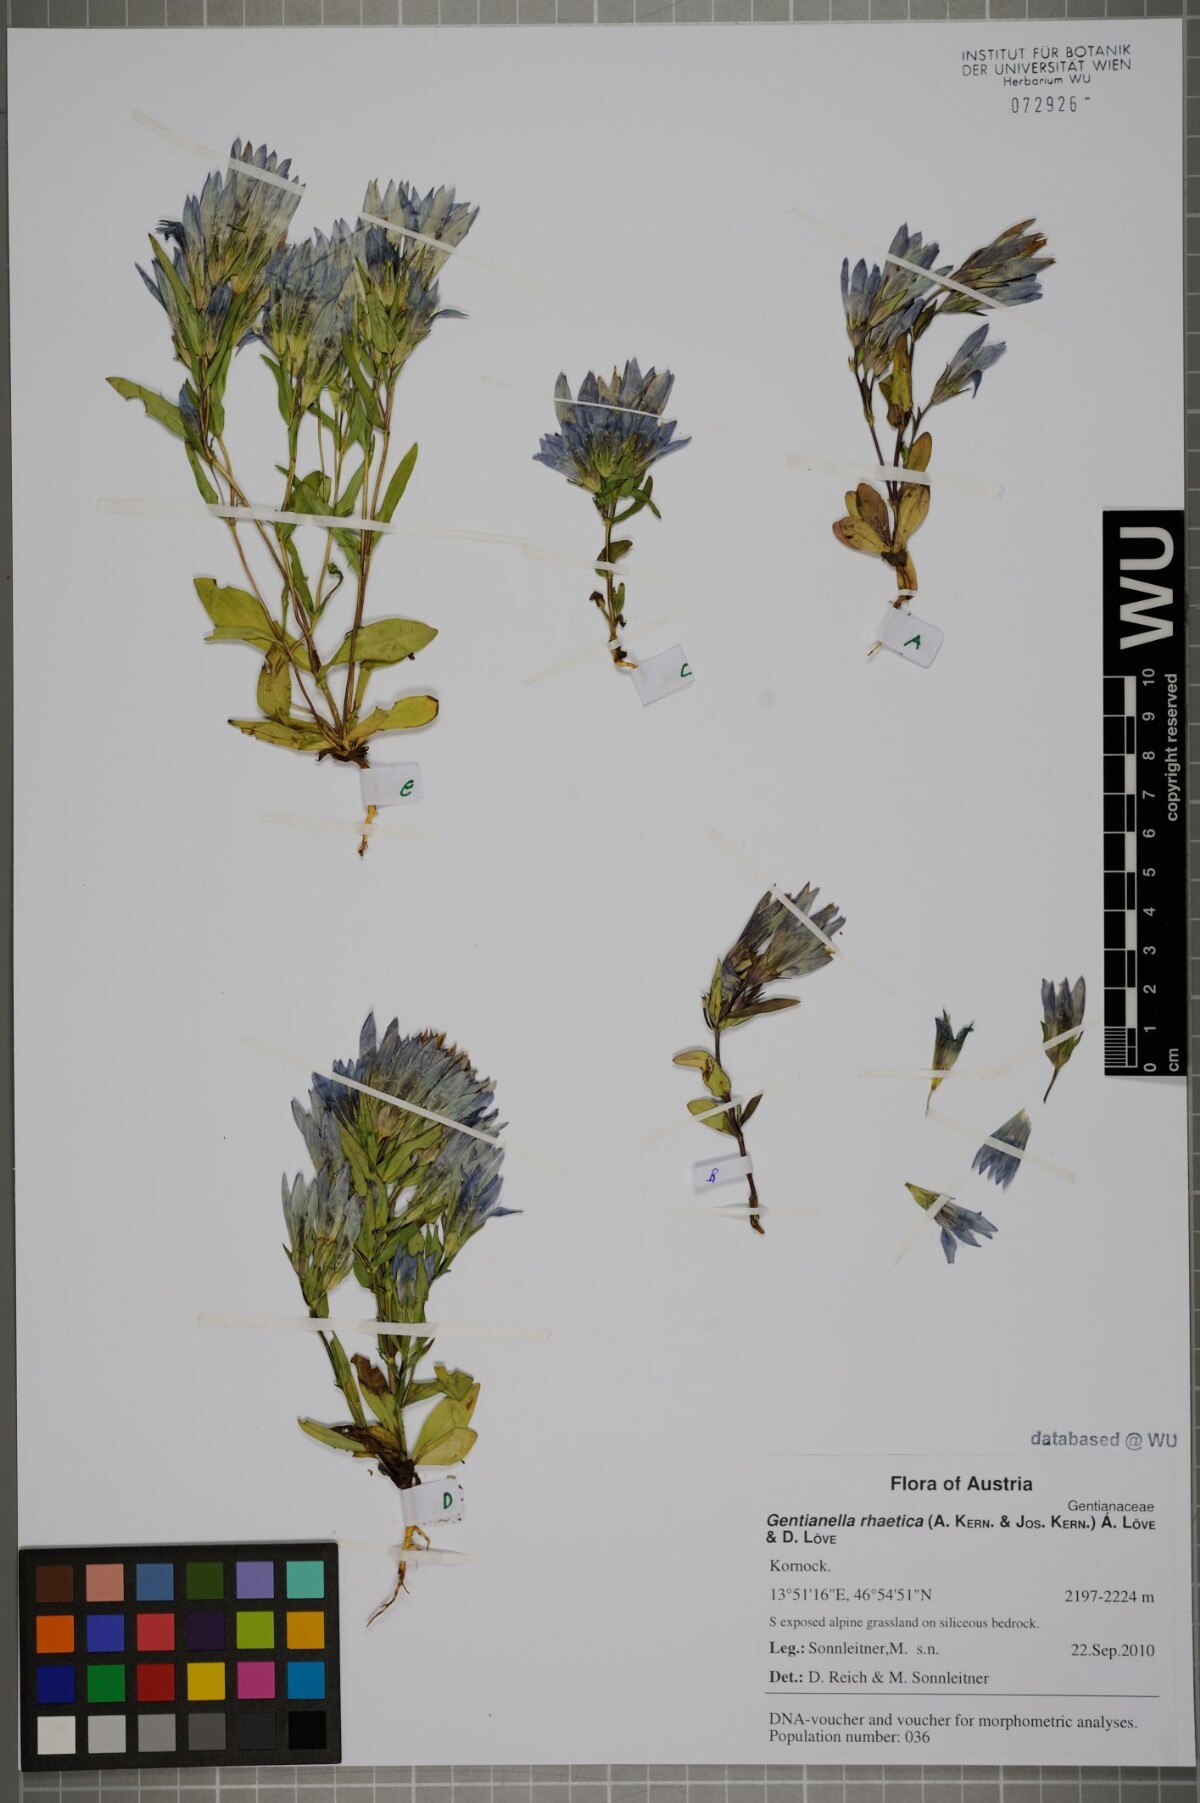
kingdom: Plantae
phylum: Tracheophyta
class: Magnoliopsida
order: Gentianales
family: Gentianaceae
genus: Gentianella
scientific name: Gentianella rhaetica
